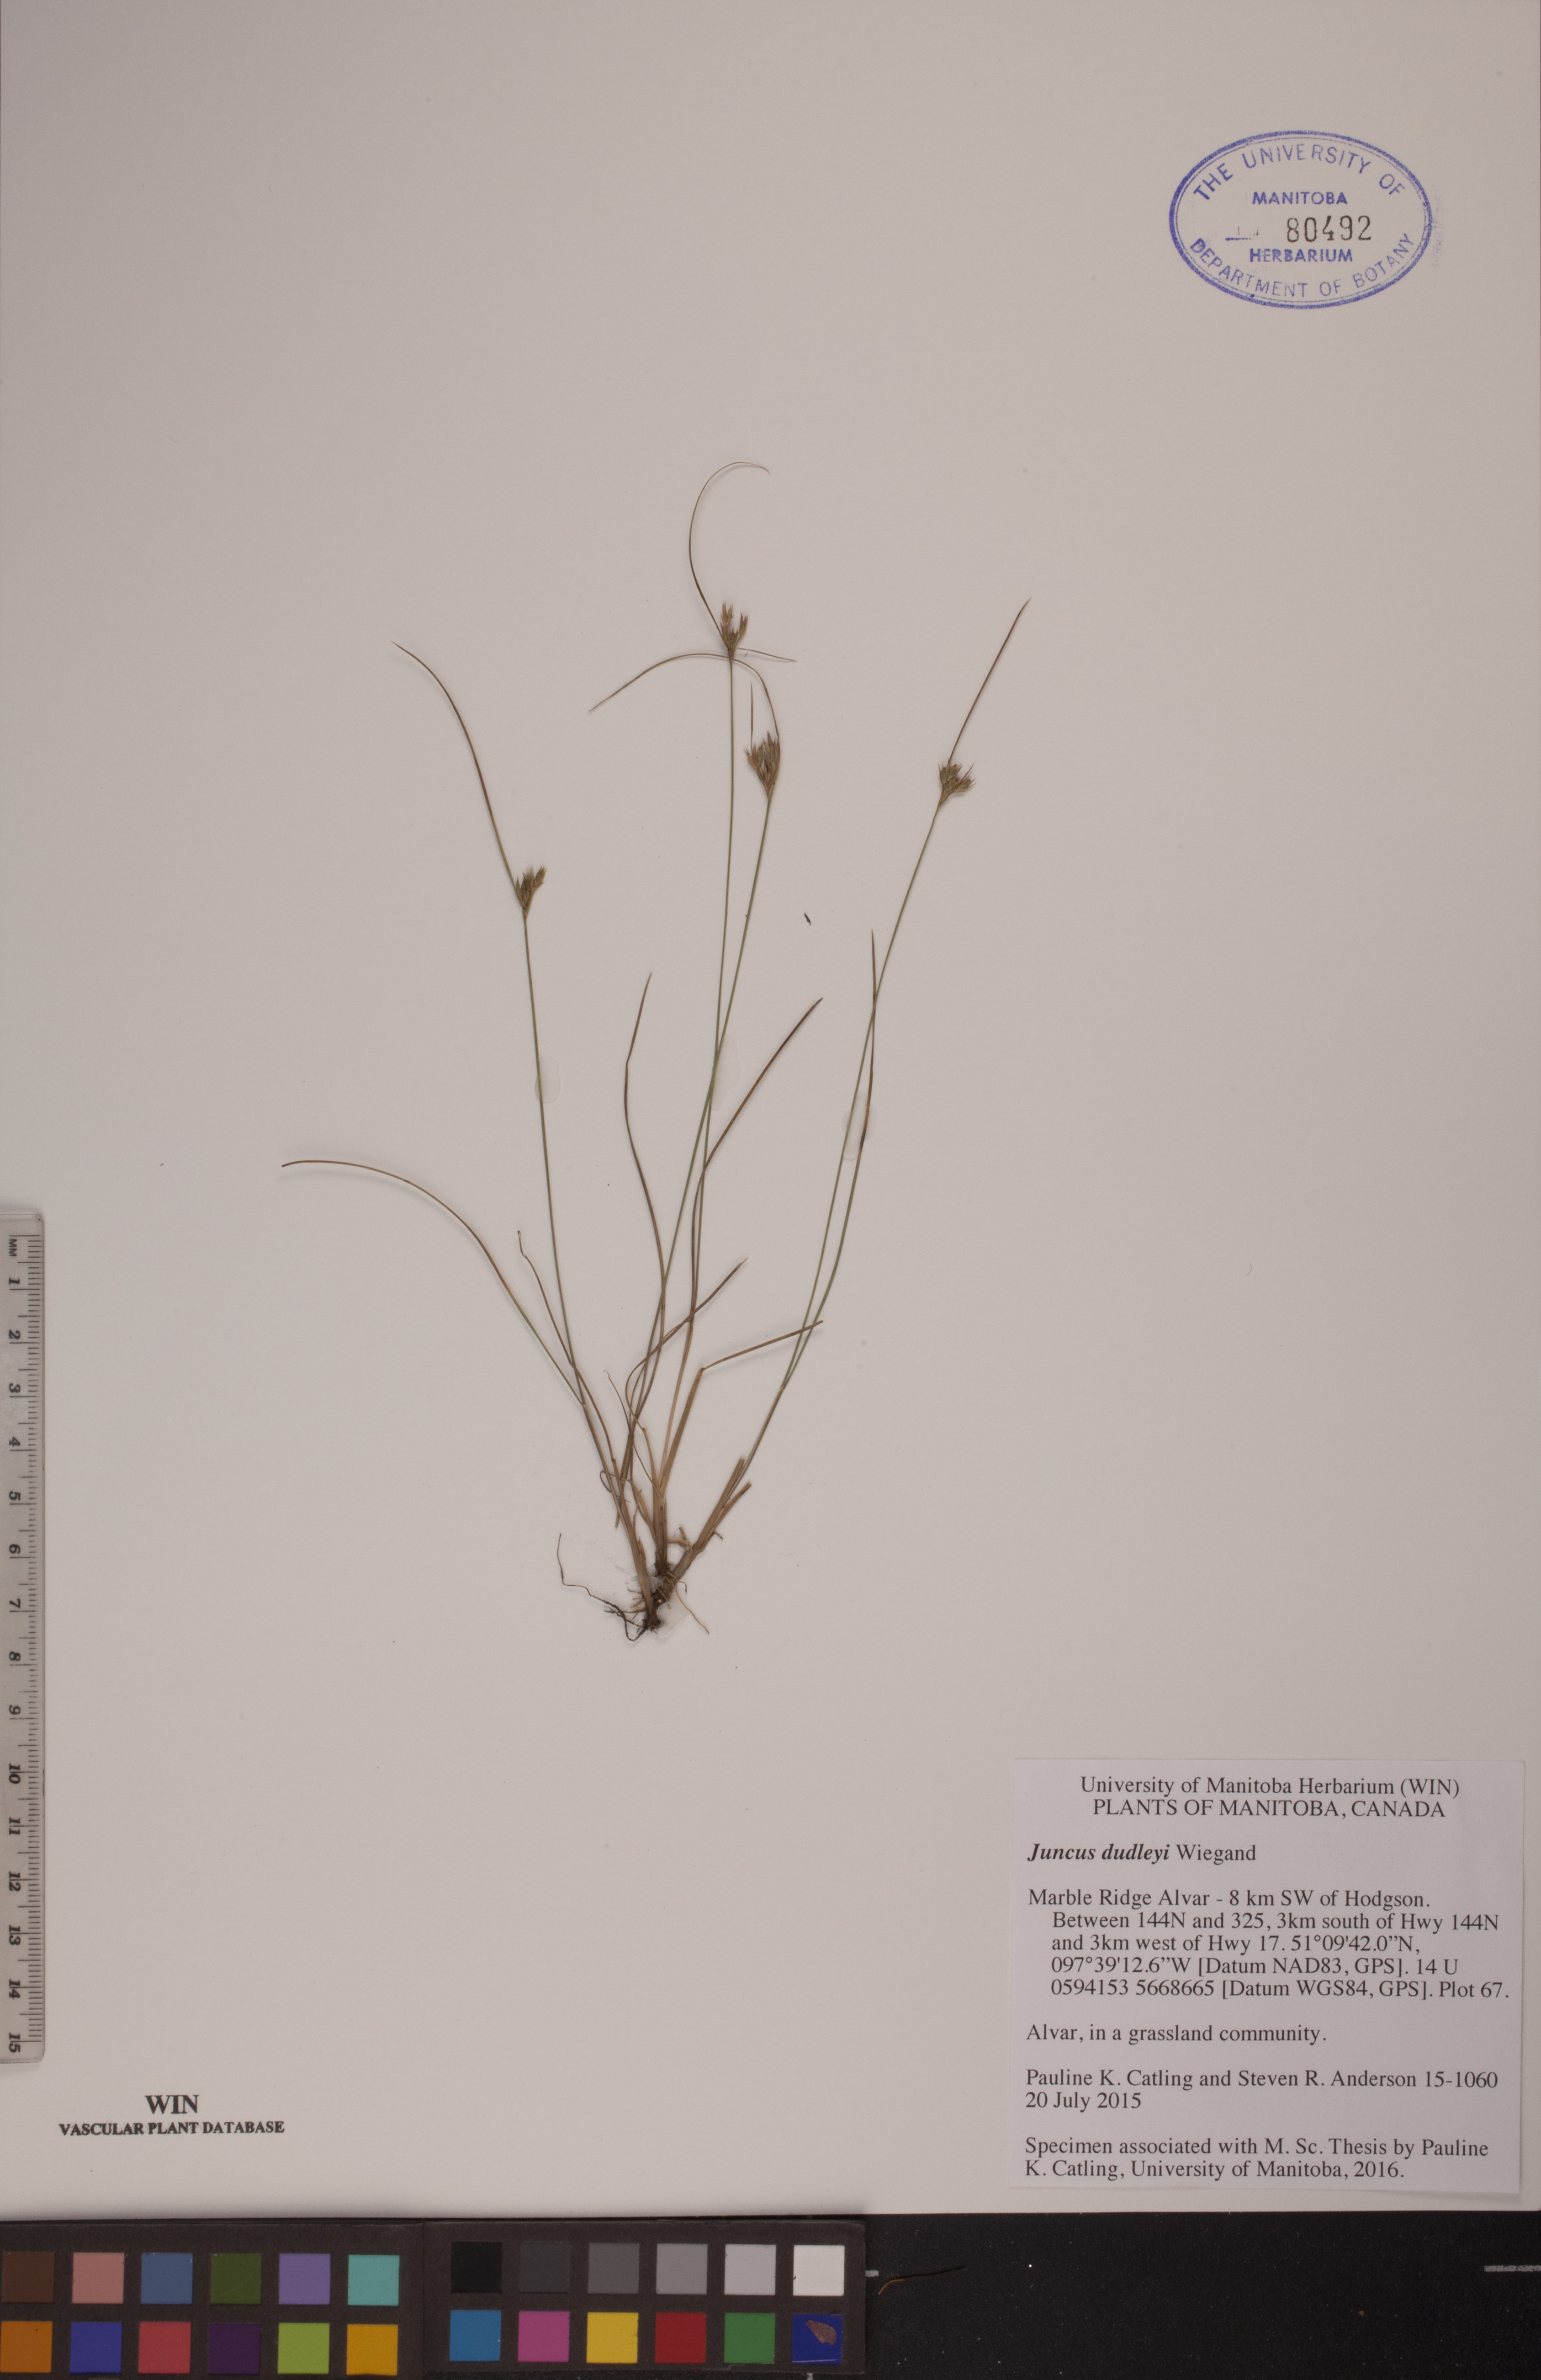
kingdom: Plantae
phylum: Tracheophyta
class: Liliopsida
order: Poales
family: Juncaceae
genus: Juncus
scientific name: Juncus dudleyi
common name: Dudley's rush
